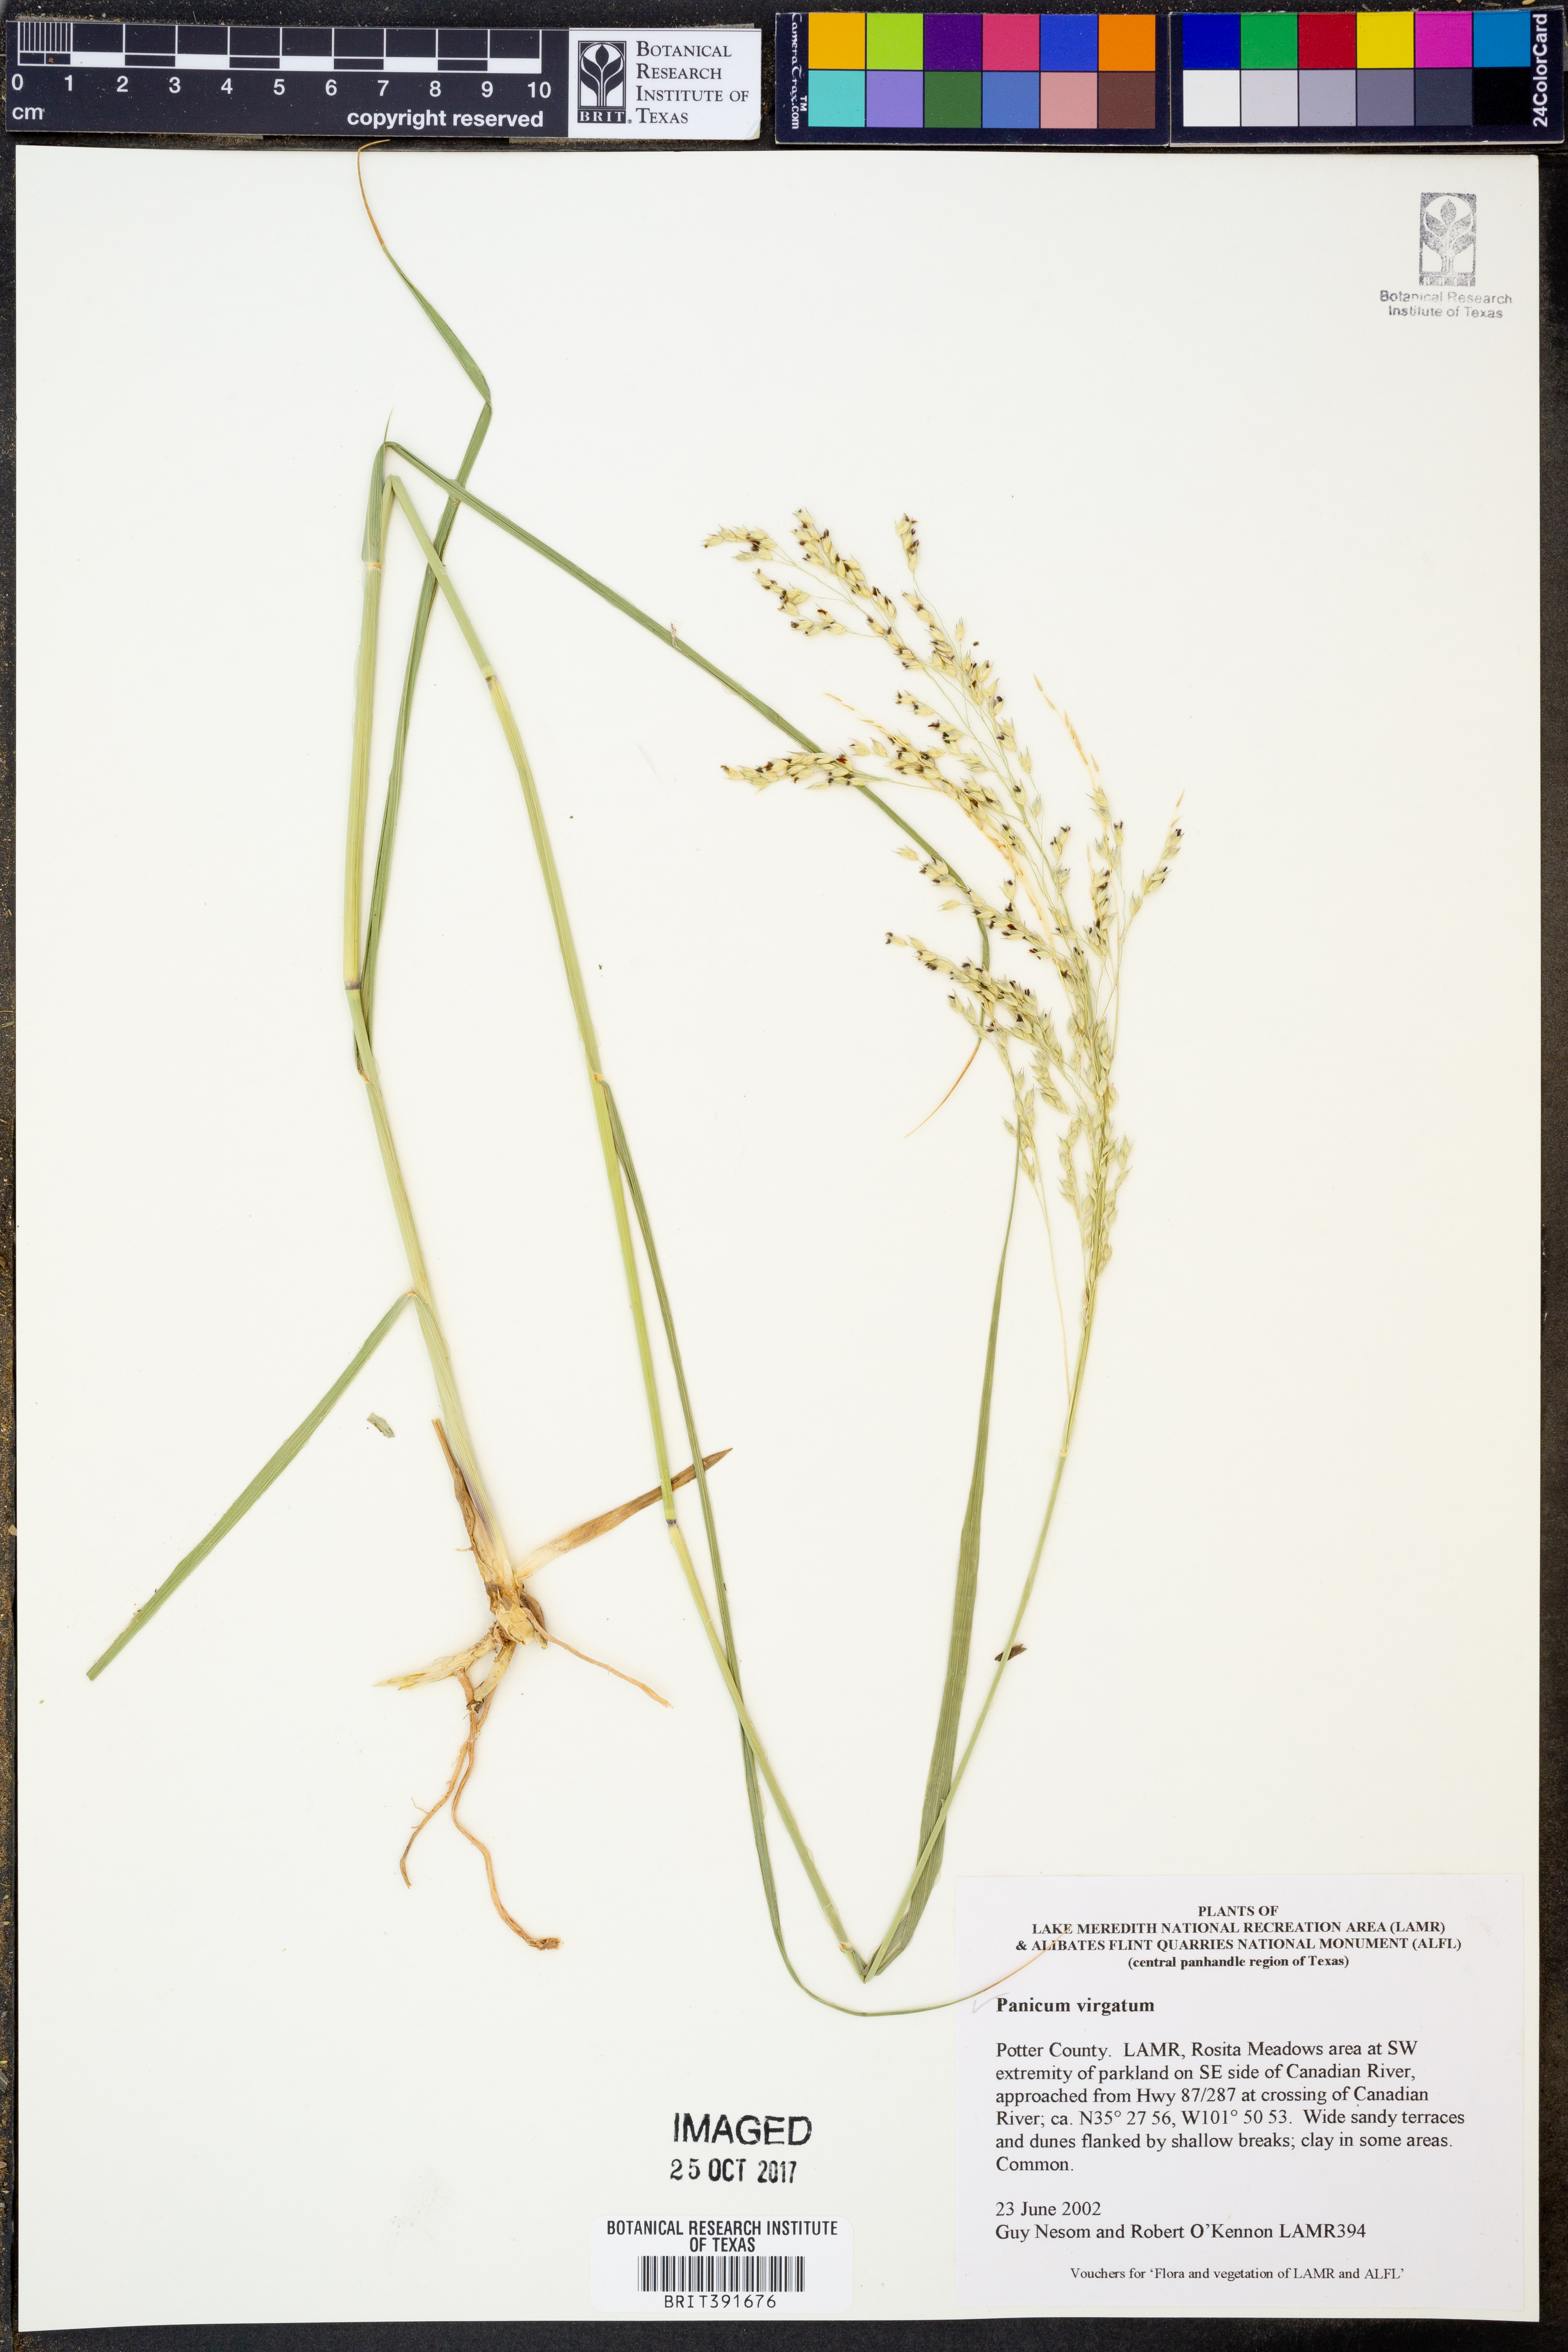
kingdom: Plantae
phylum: Tracheophyta
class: Liliopsida
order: Poales
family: Poaceae
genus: Panicum
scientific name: Panicum virgatum
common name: Switchgrass
